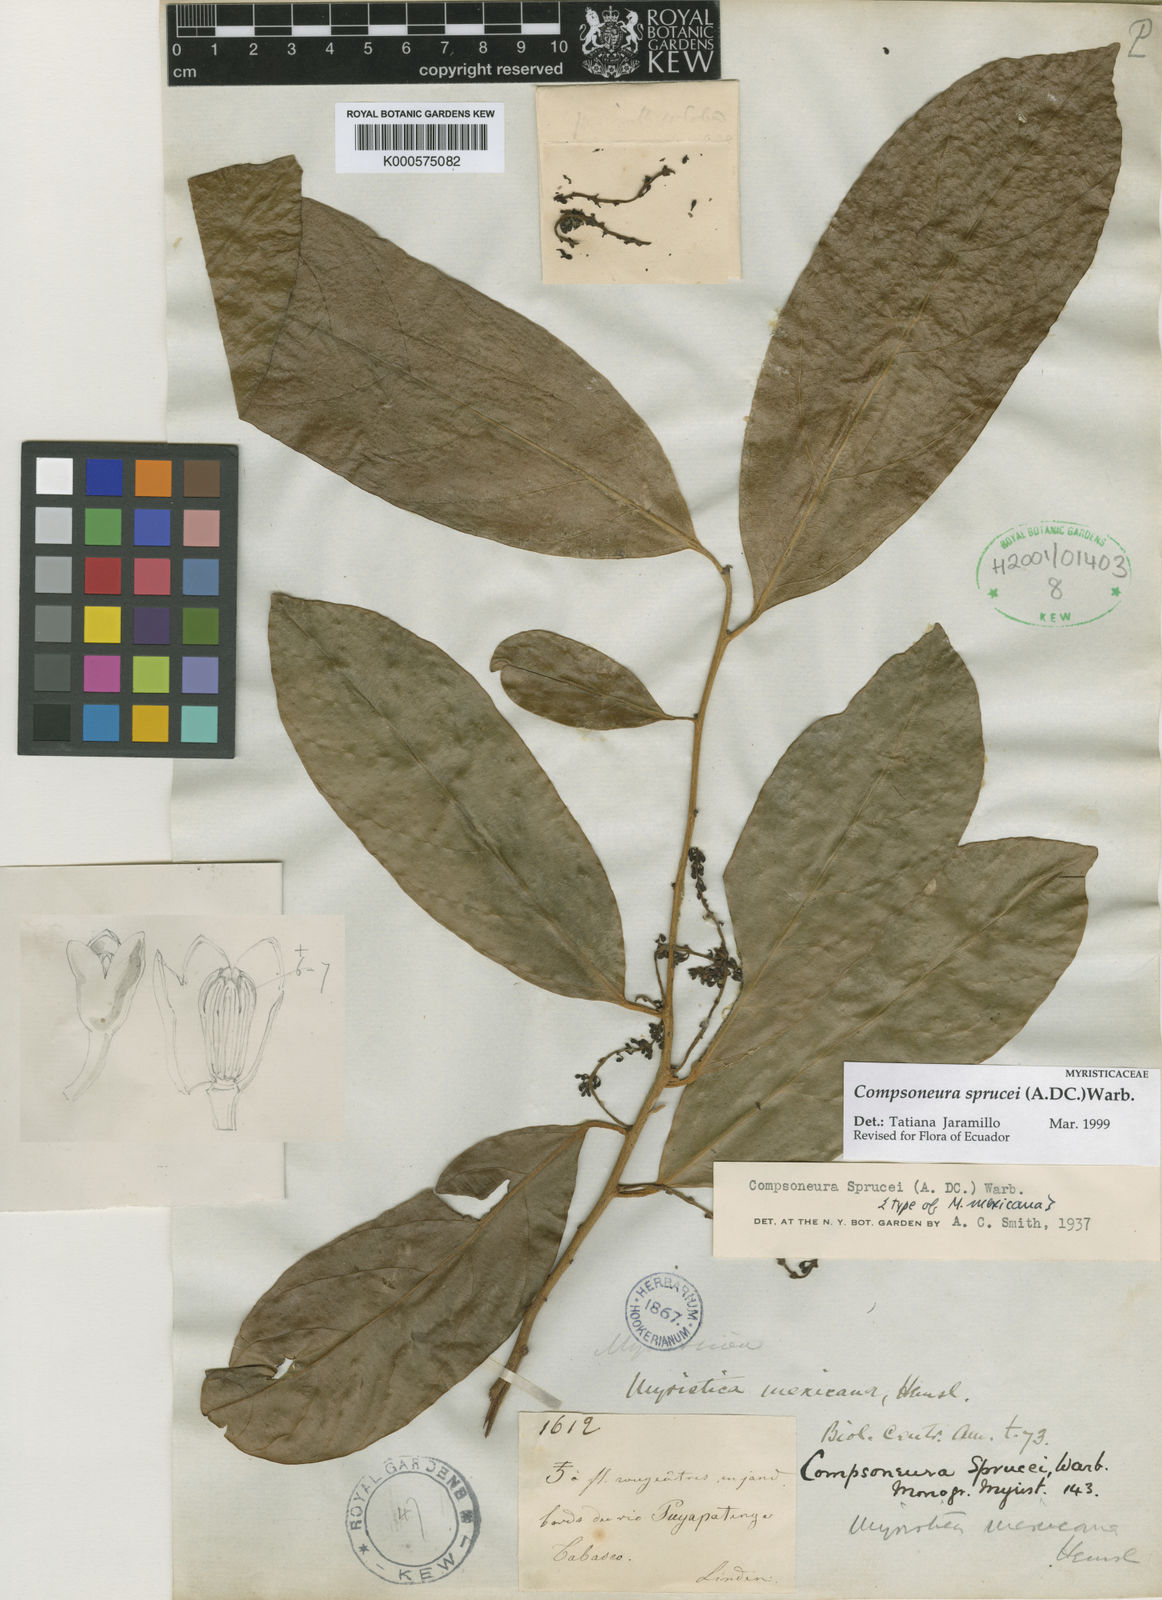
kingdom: Plantae
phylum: Tracheophyta
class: Magnoliopsida
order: Magnoliales
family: Myristicaceae
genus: Compsoneura
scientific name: Compsoneura sprucei
